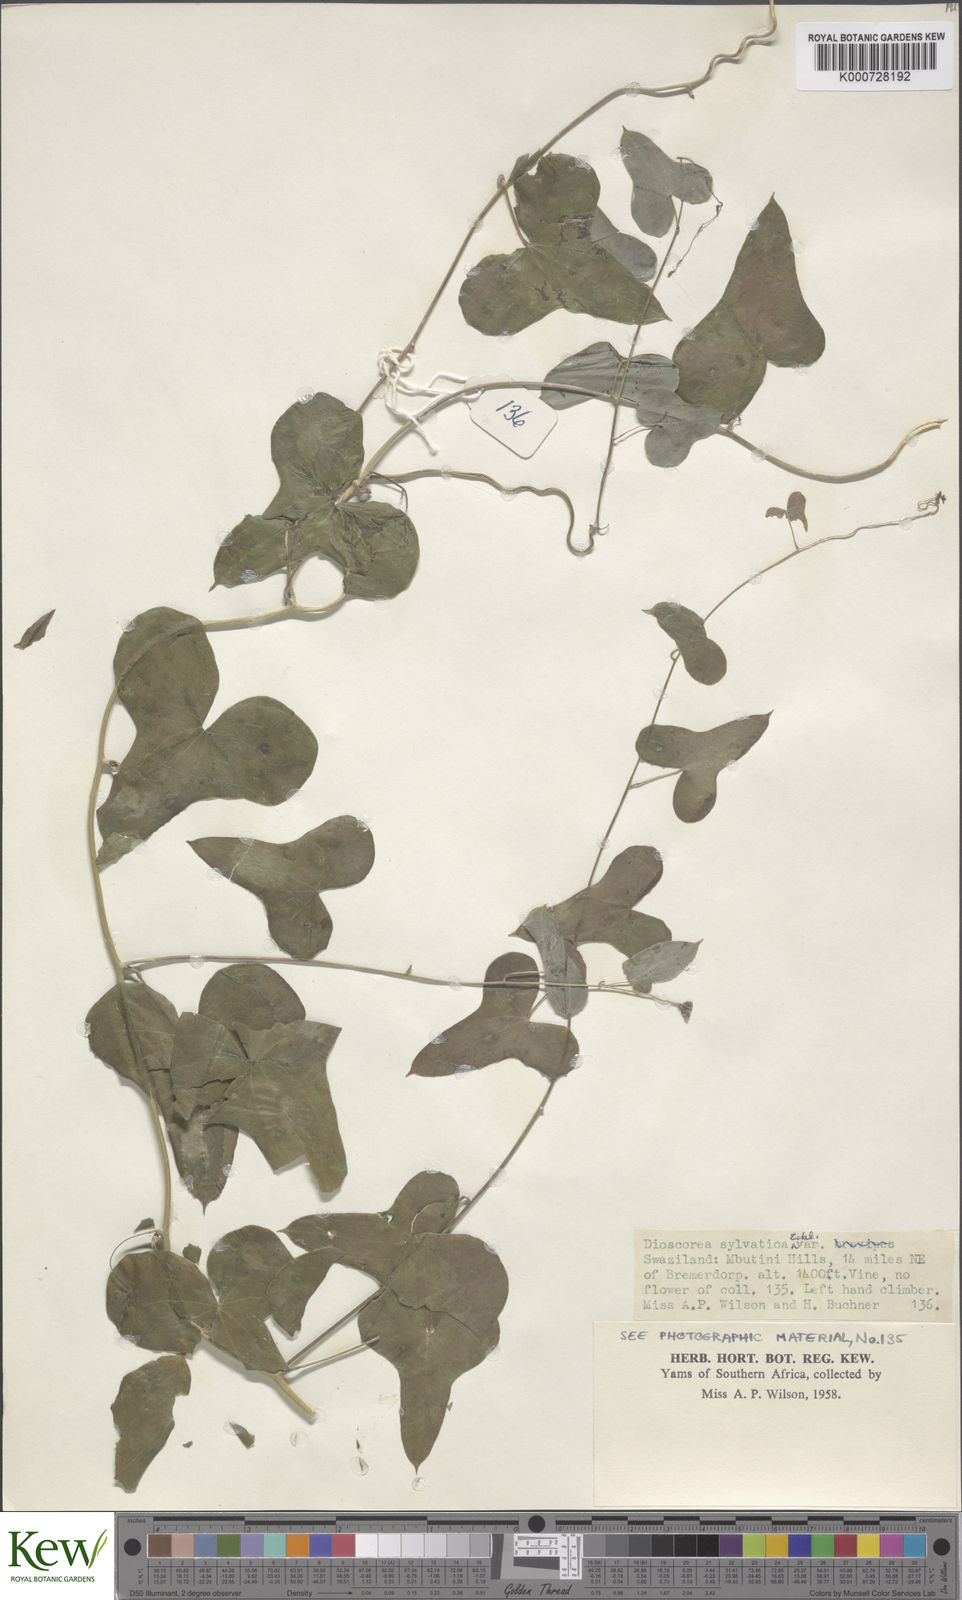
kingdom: Plantae
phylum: Tracheophyta
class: Liliopsida
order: Dioscoreales
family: Dioscoreaceae
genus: Dioscorea
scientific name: Dioscorea sylvatica
